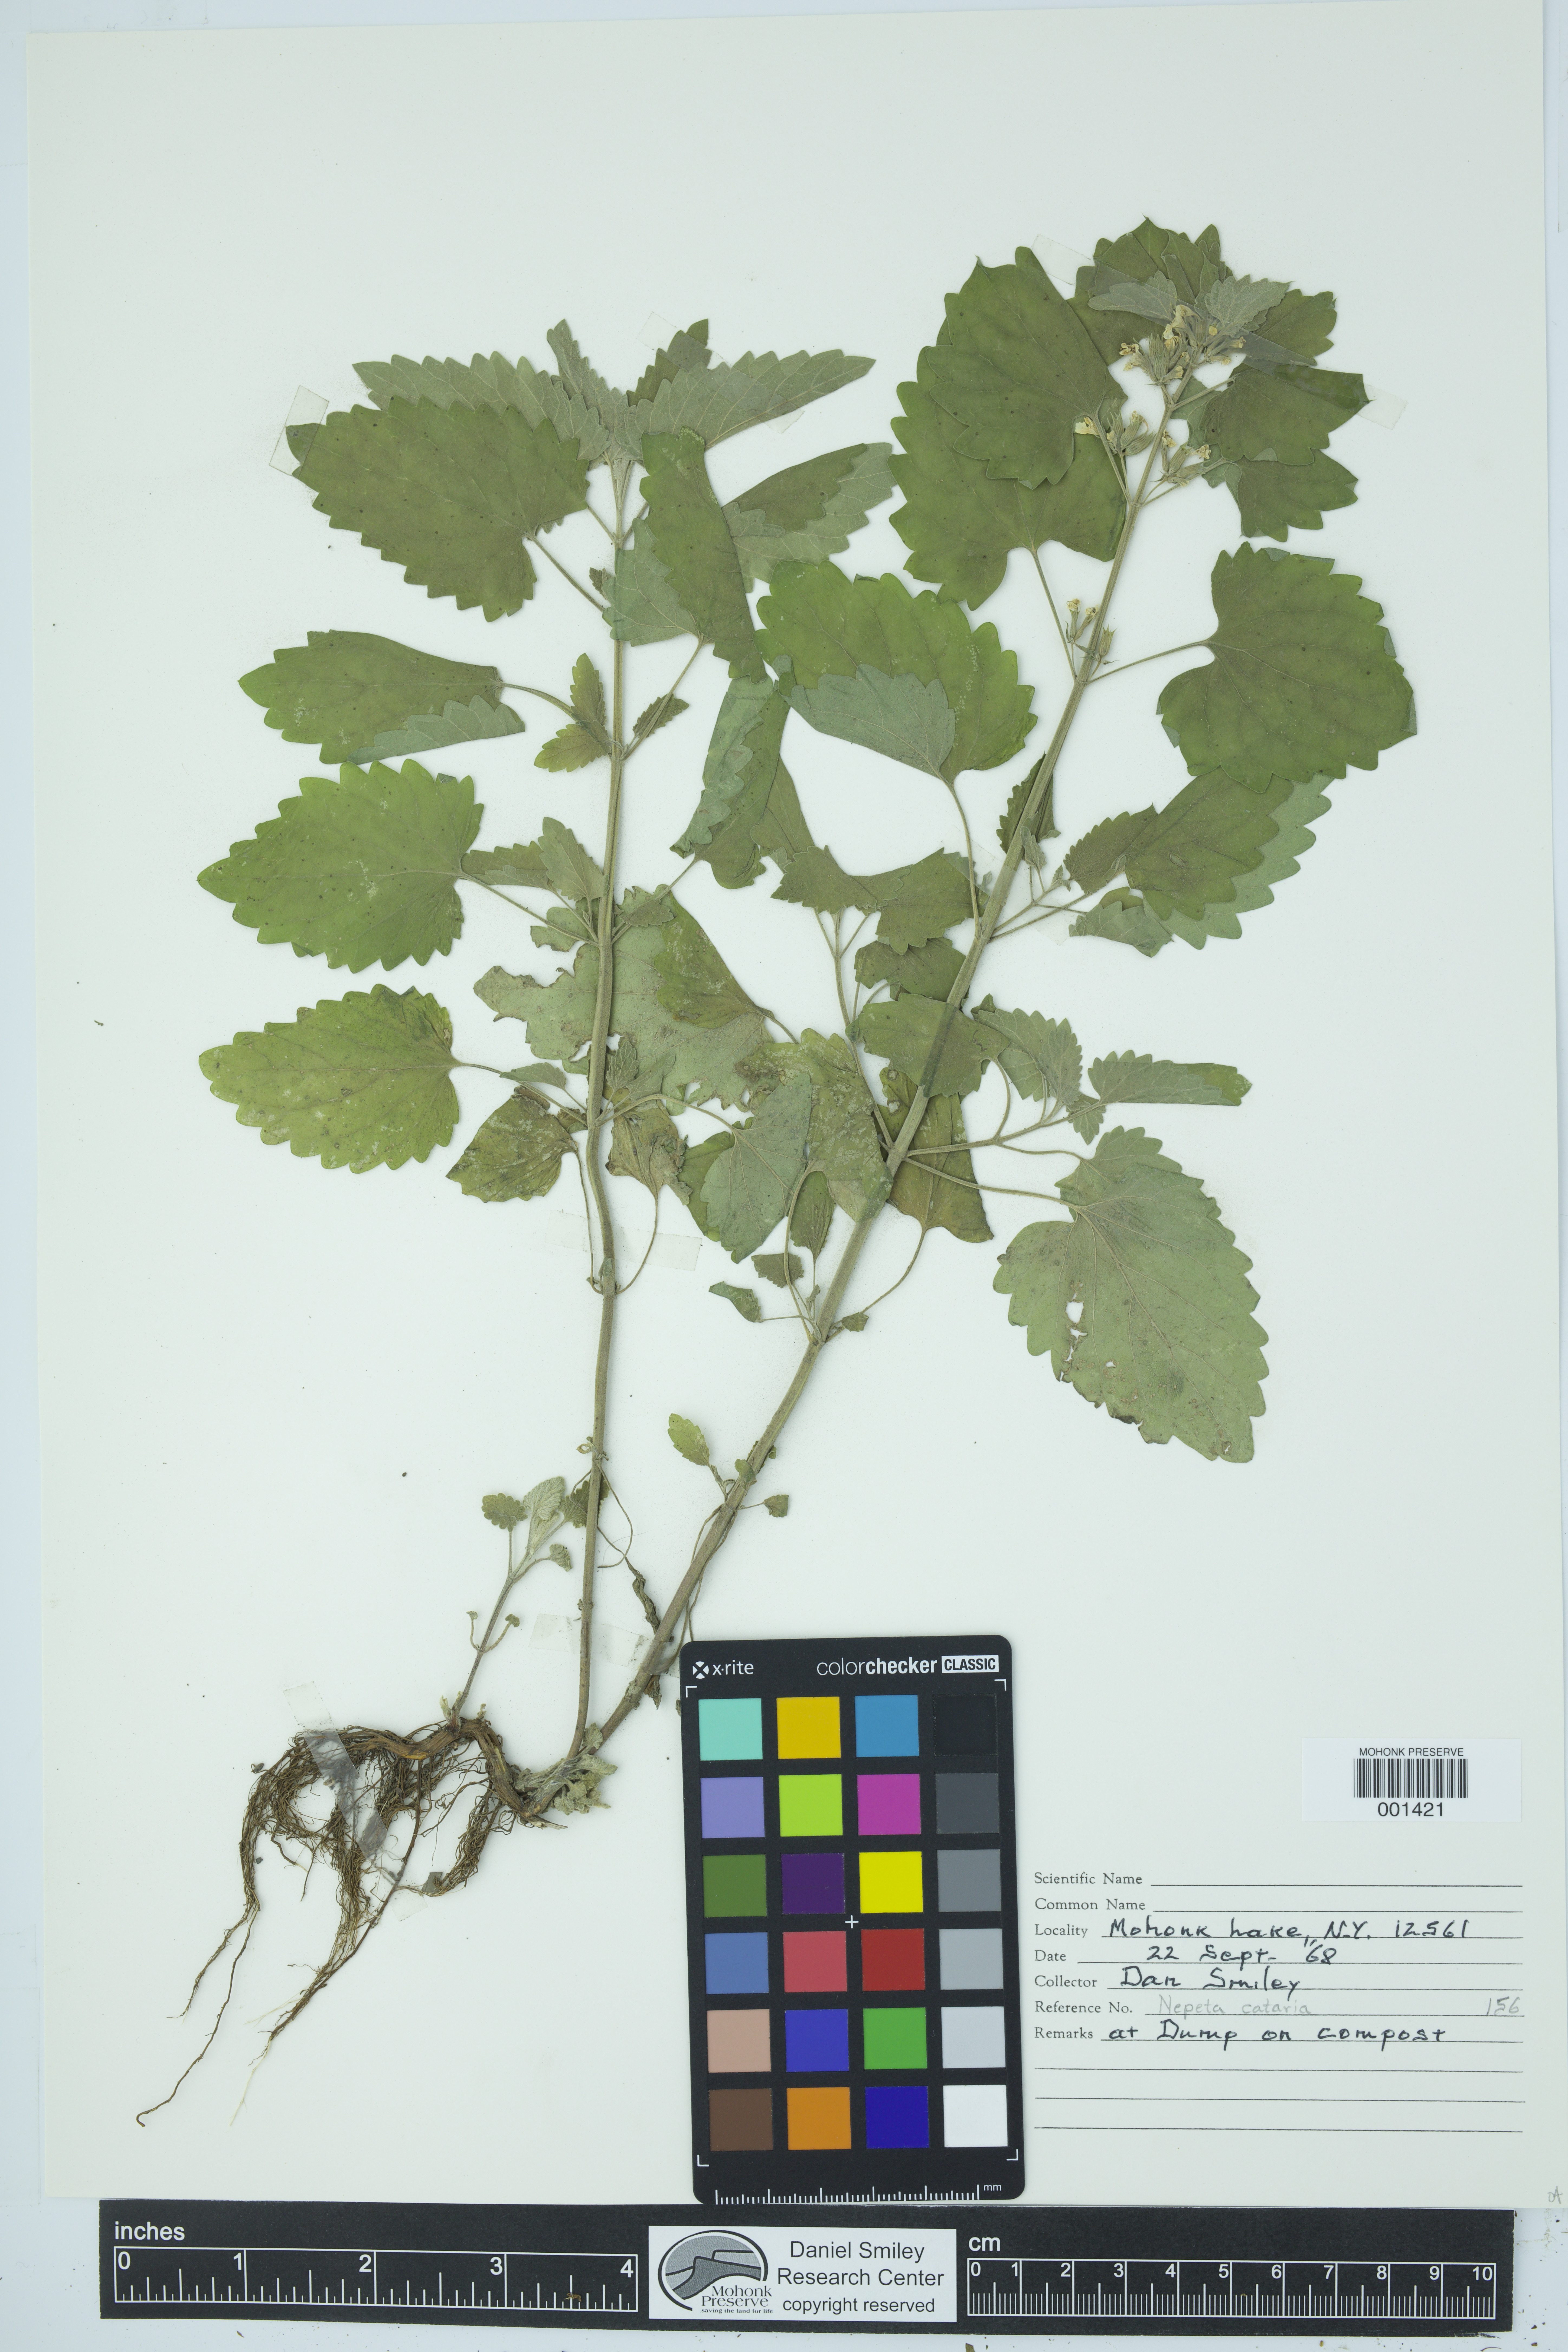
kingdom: Plantae
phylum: Tracheophyta
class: Magnoliopsida
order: Lamiales
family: Lamiaceae
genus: Nepeta
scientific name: Nepeta cataria
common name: Catnip
